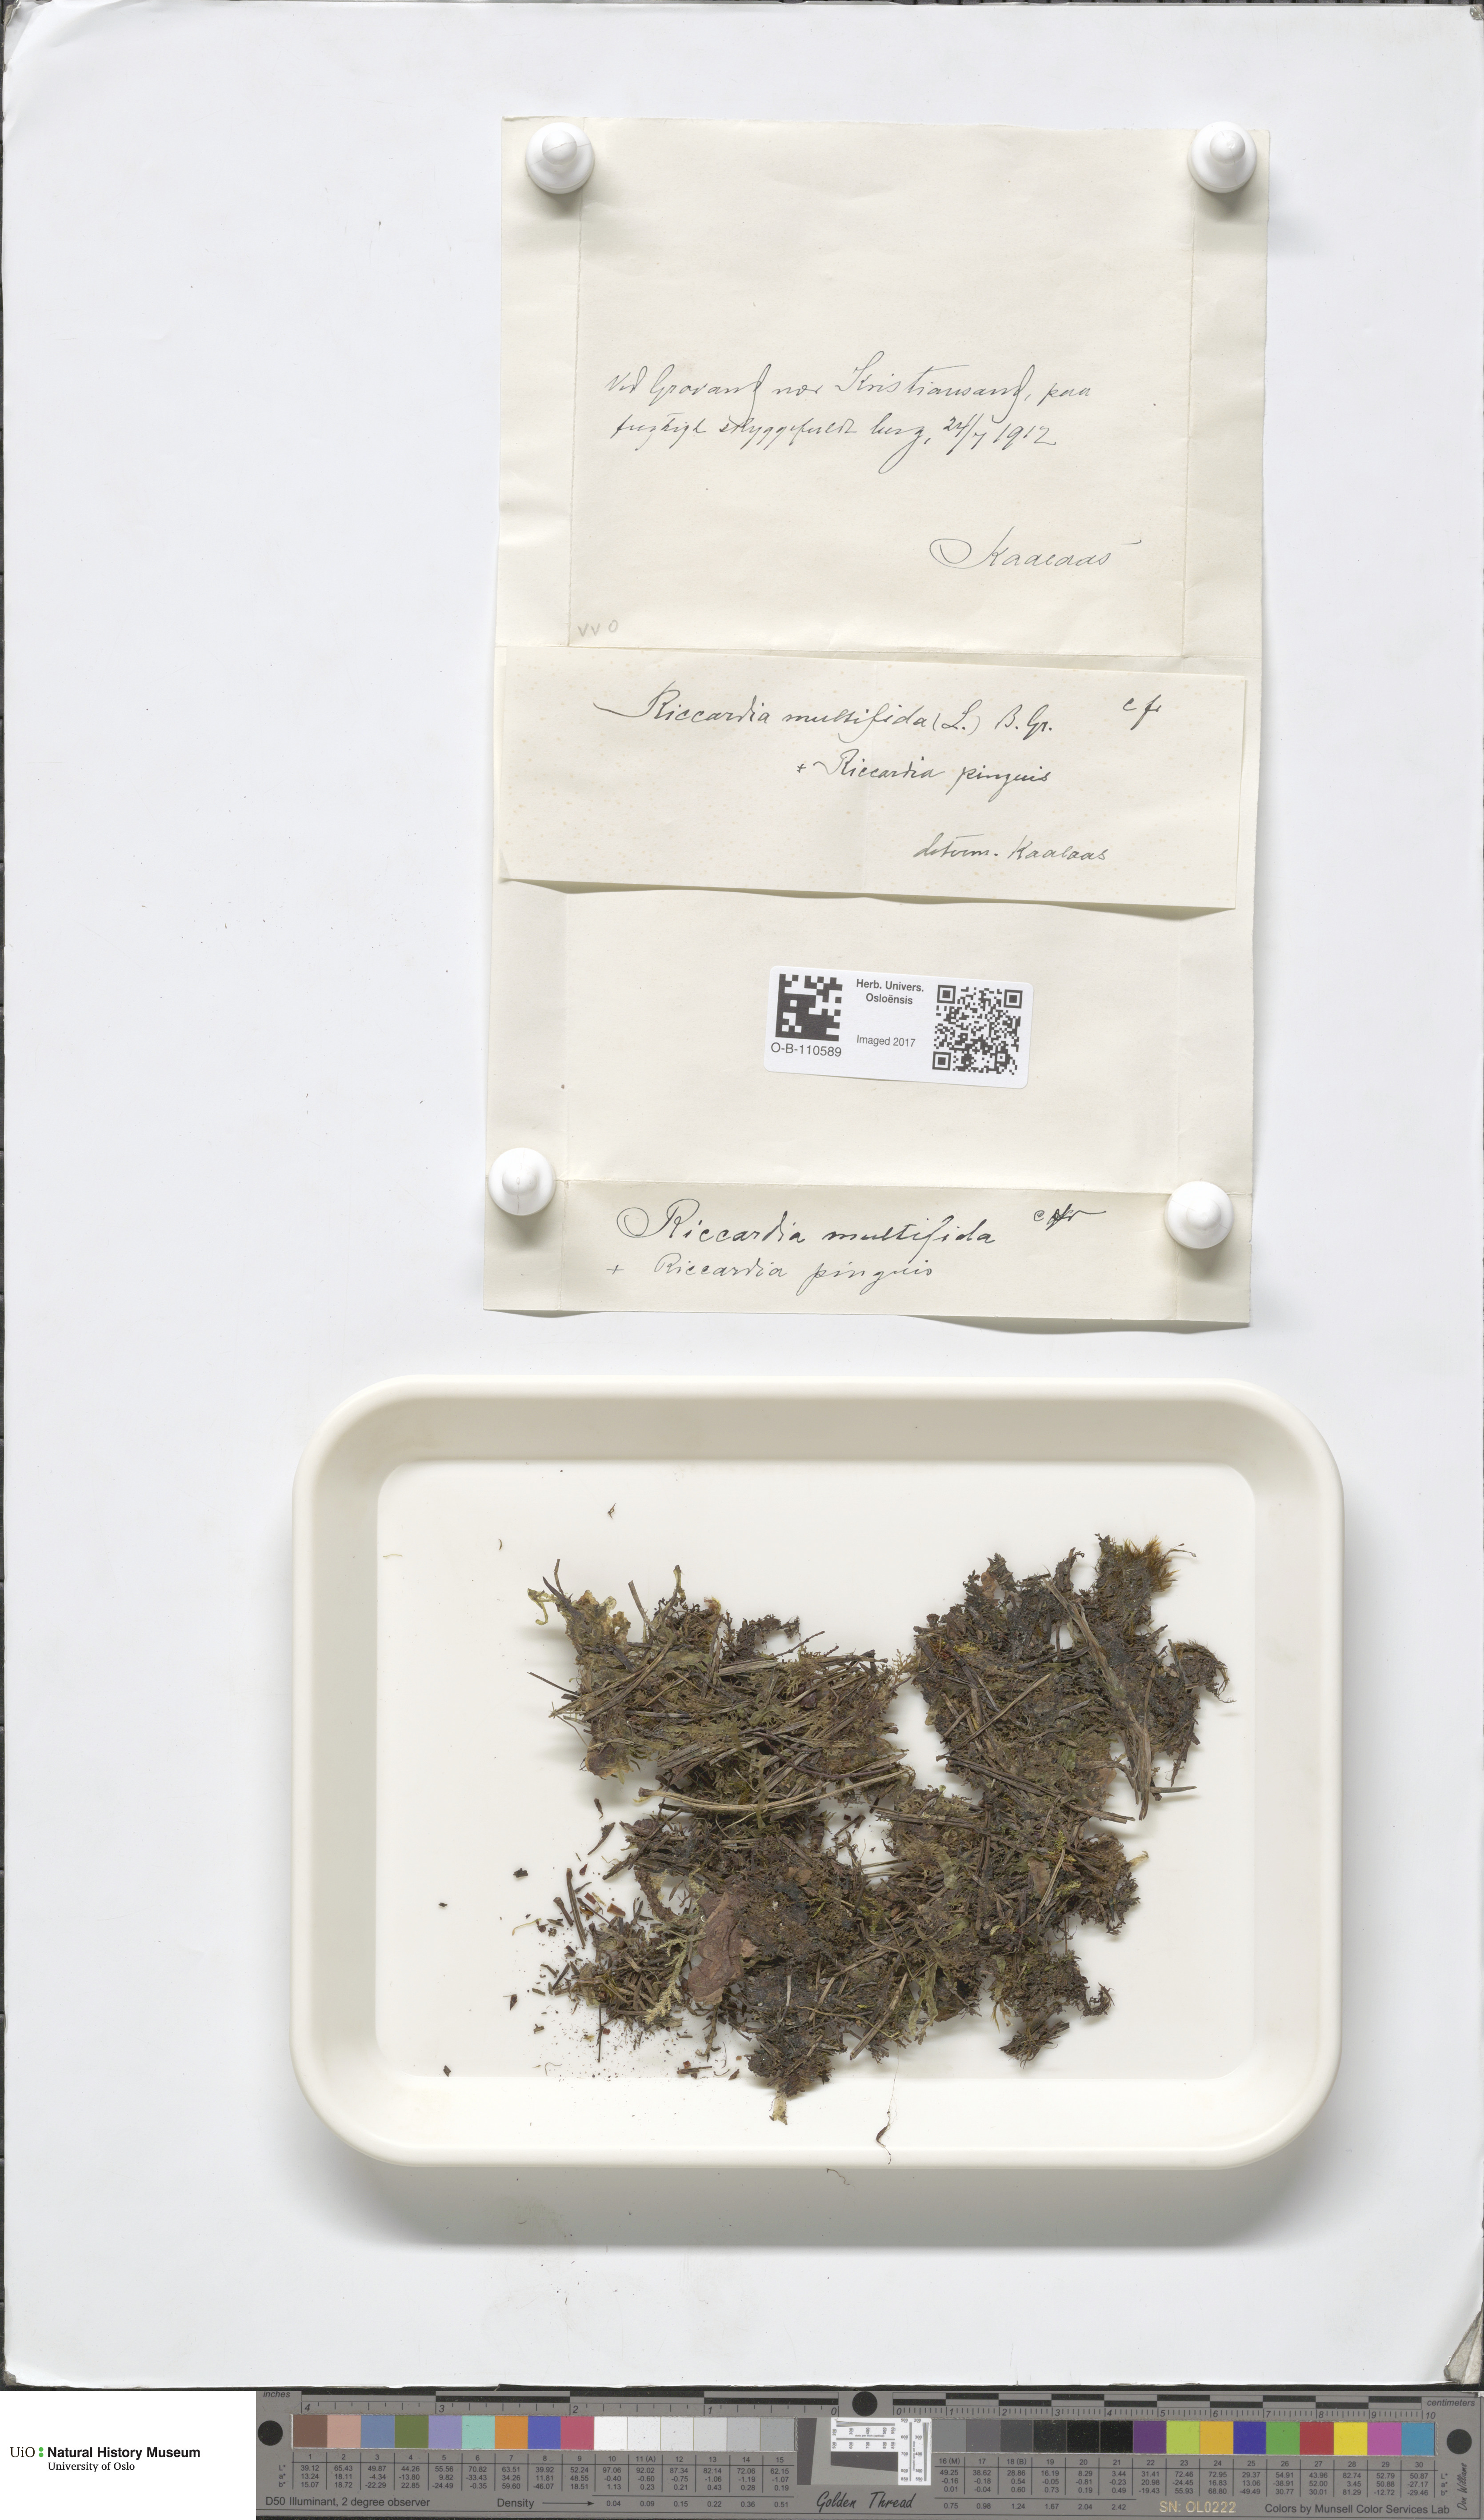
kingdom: Plantae
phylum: Marchantiophyta
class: Jungermanniopsida
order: Metzgeriales
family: Aneuraceae
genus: Riccardia
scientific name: Riccardia multifida
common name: Delicate germanderwort
